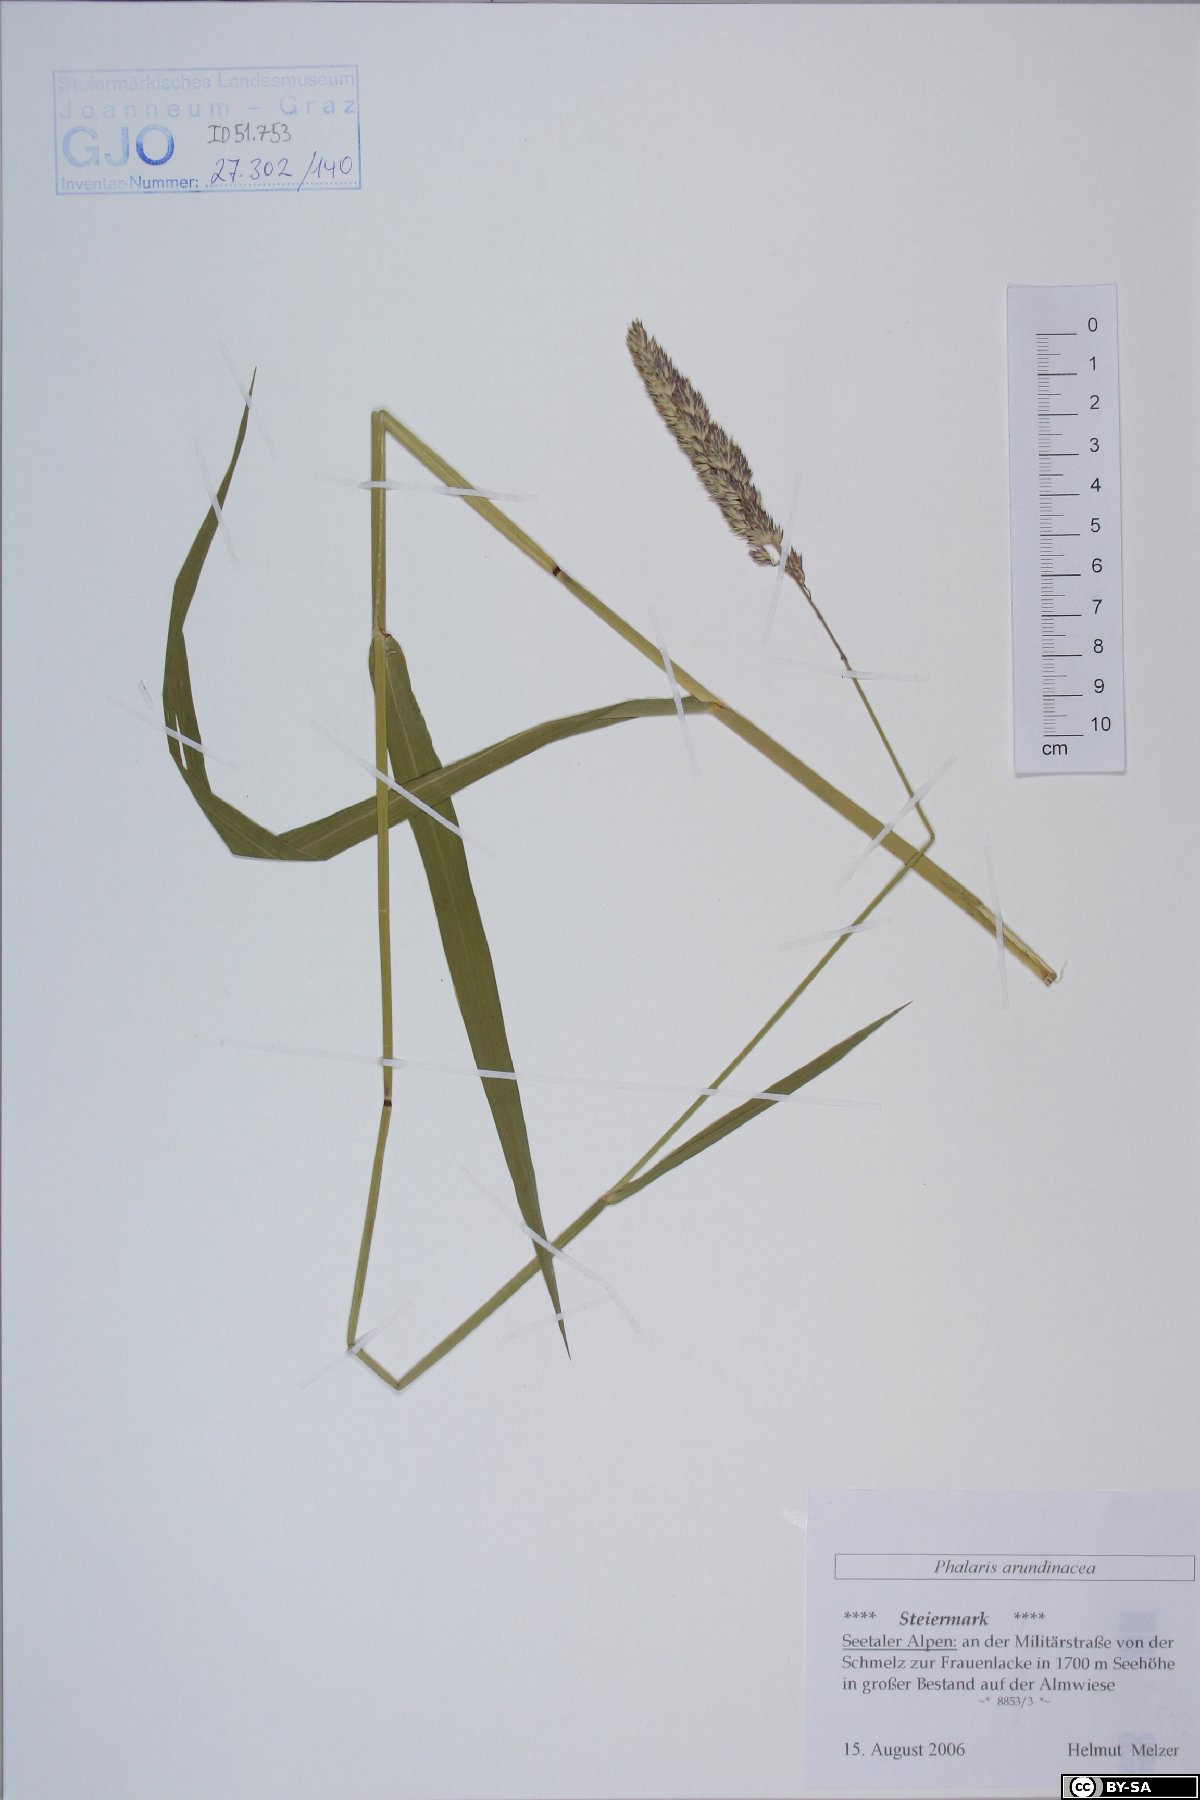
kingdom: Plantae
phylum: Tracheophyta
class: Liliopsida
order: Poales
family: Poaceae
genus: Phalaris
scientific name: Phalaris arundinacea
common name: Reed canary-grass
